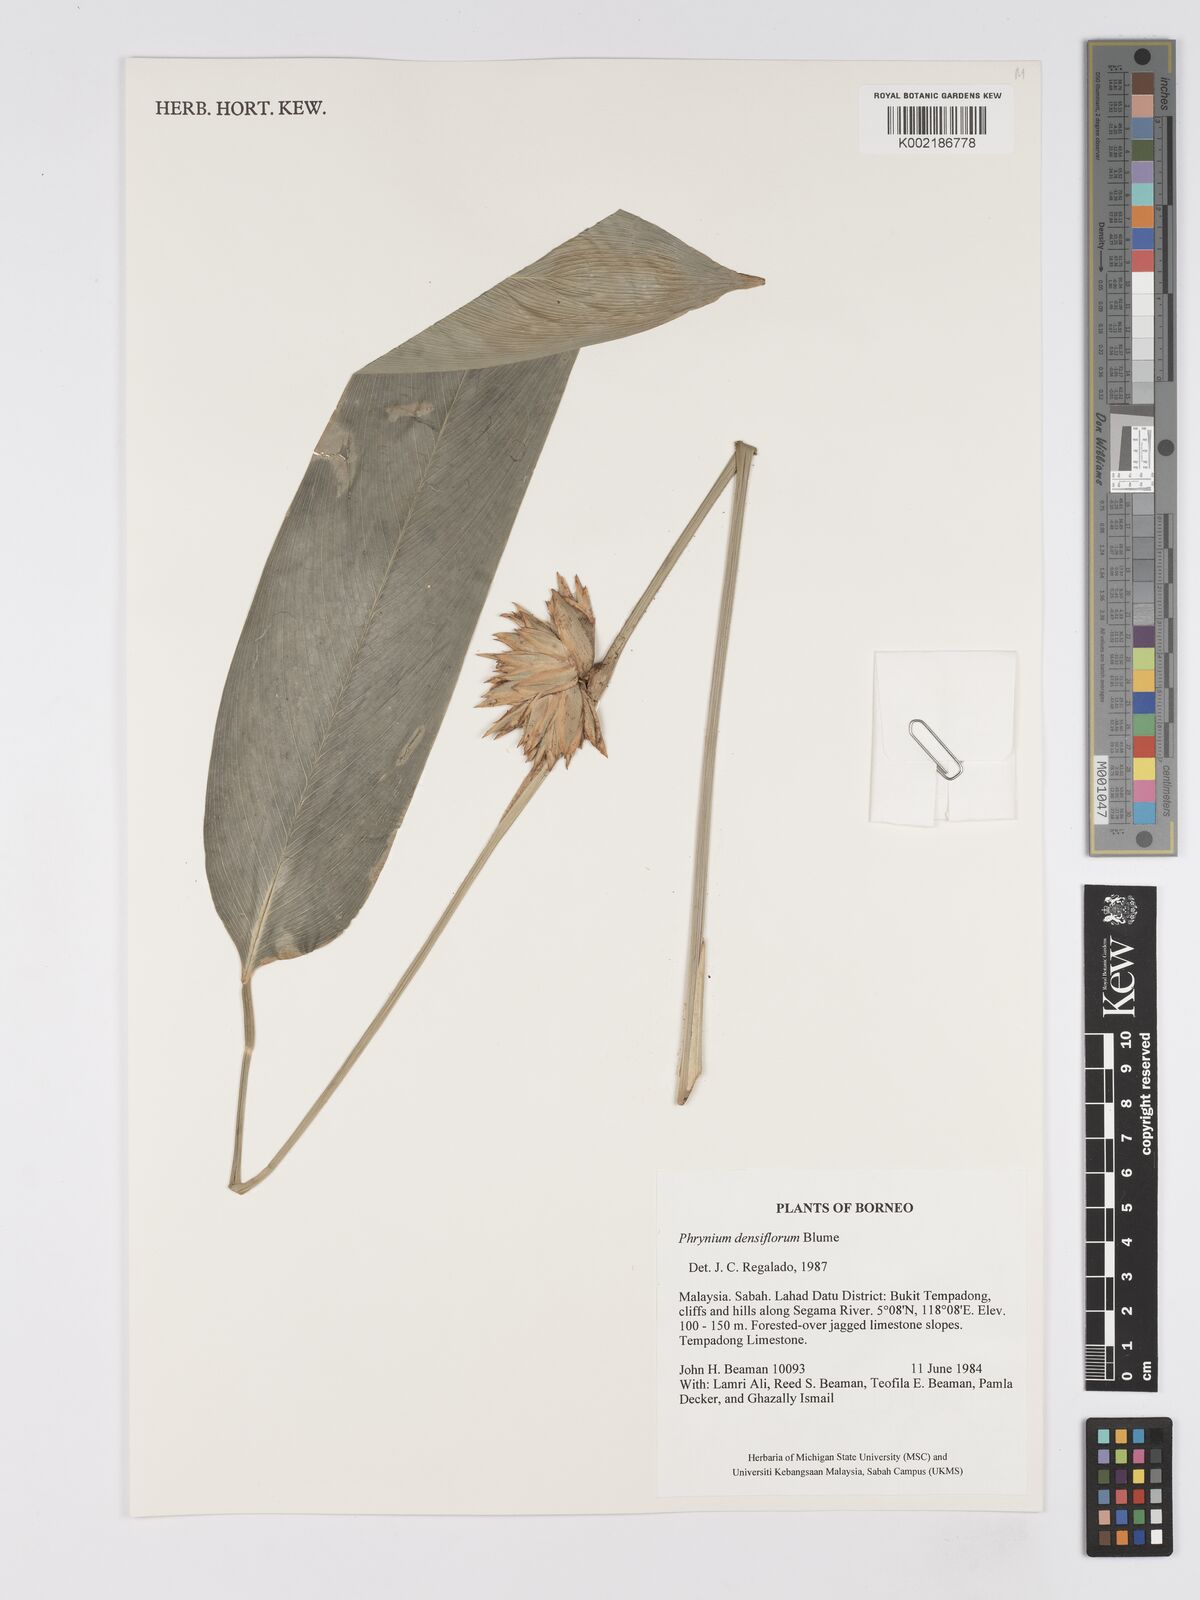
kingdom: Plantae
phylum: Tracheophyta
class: Liliopsida
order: Zingiberales
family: Marantaceae
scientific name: Marantaceae
